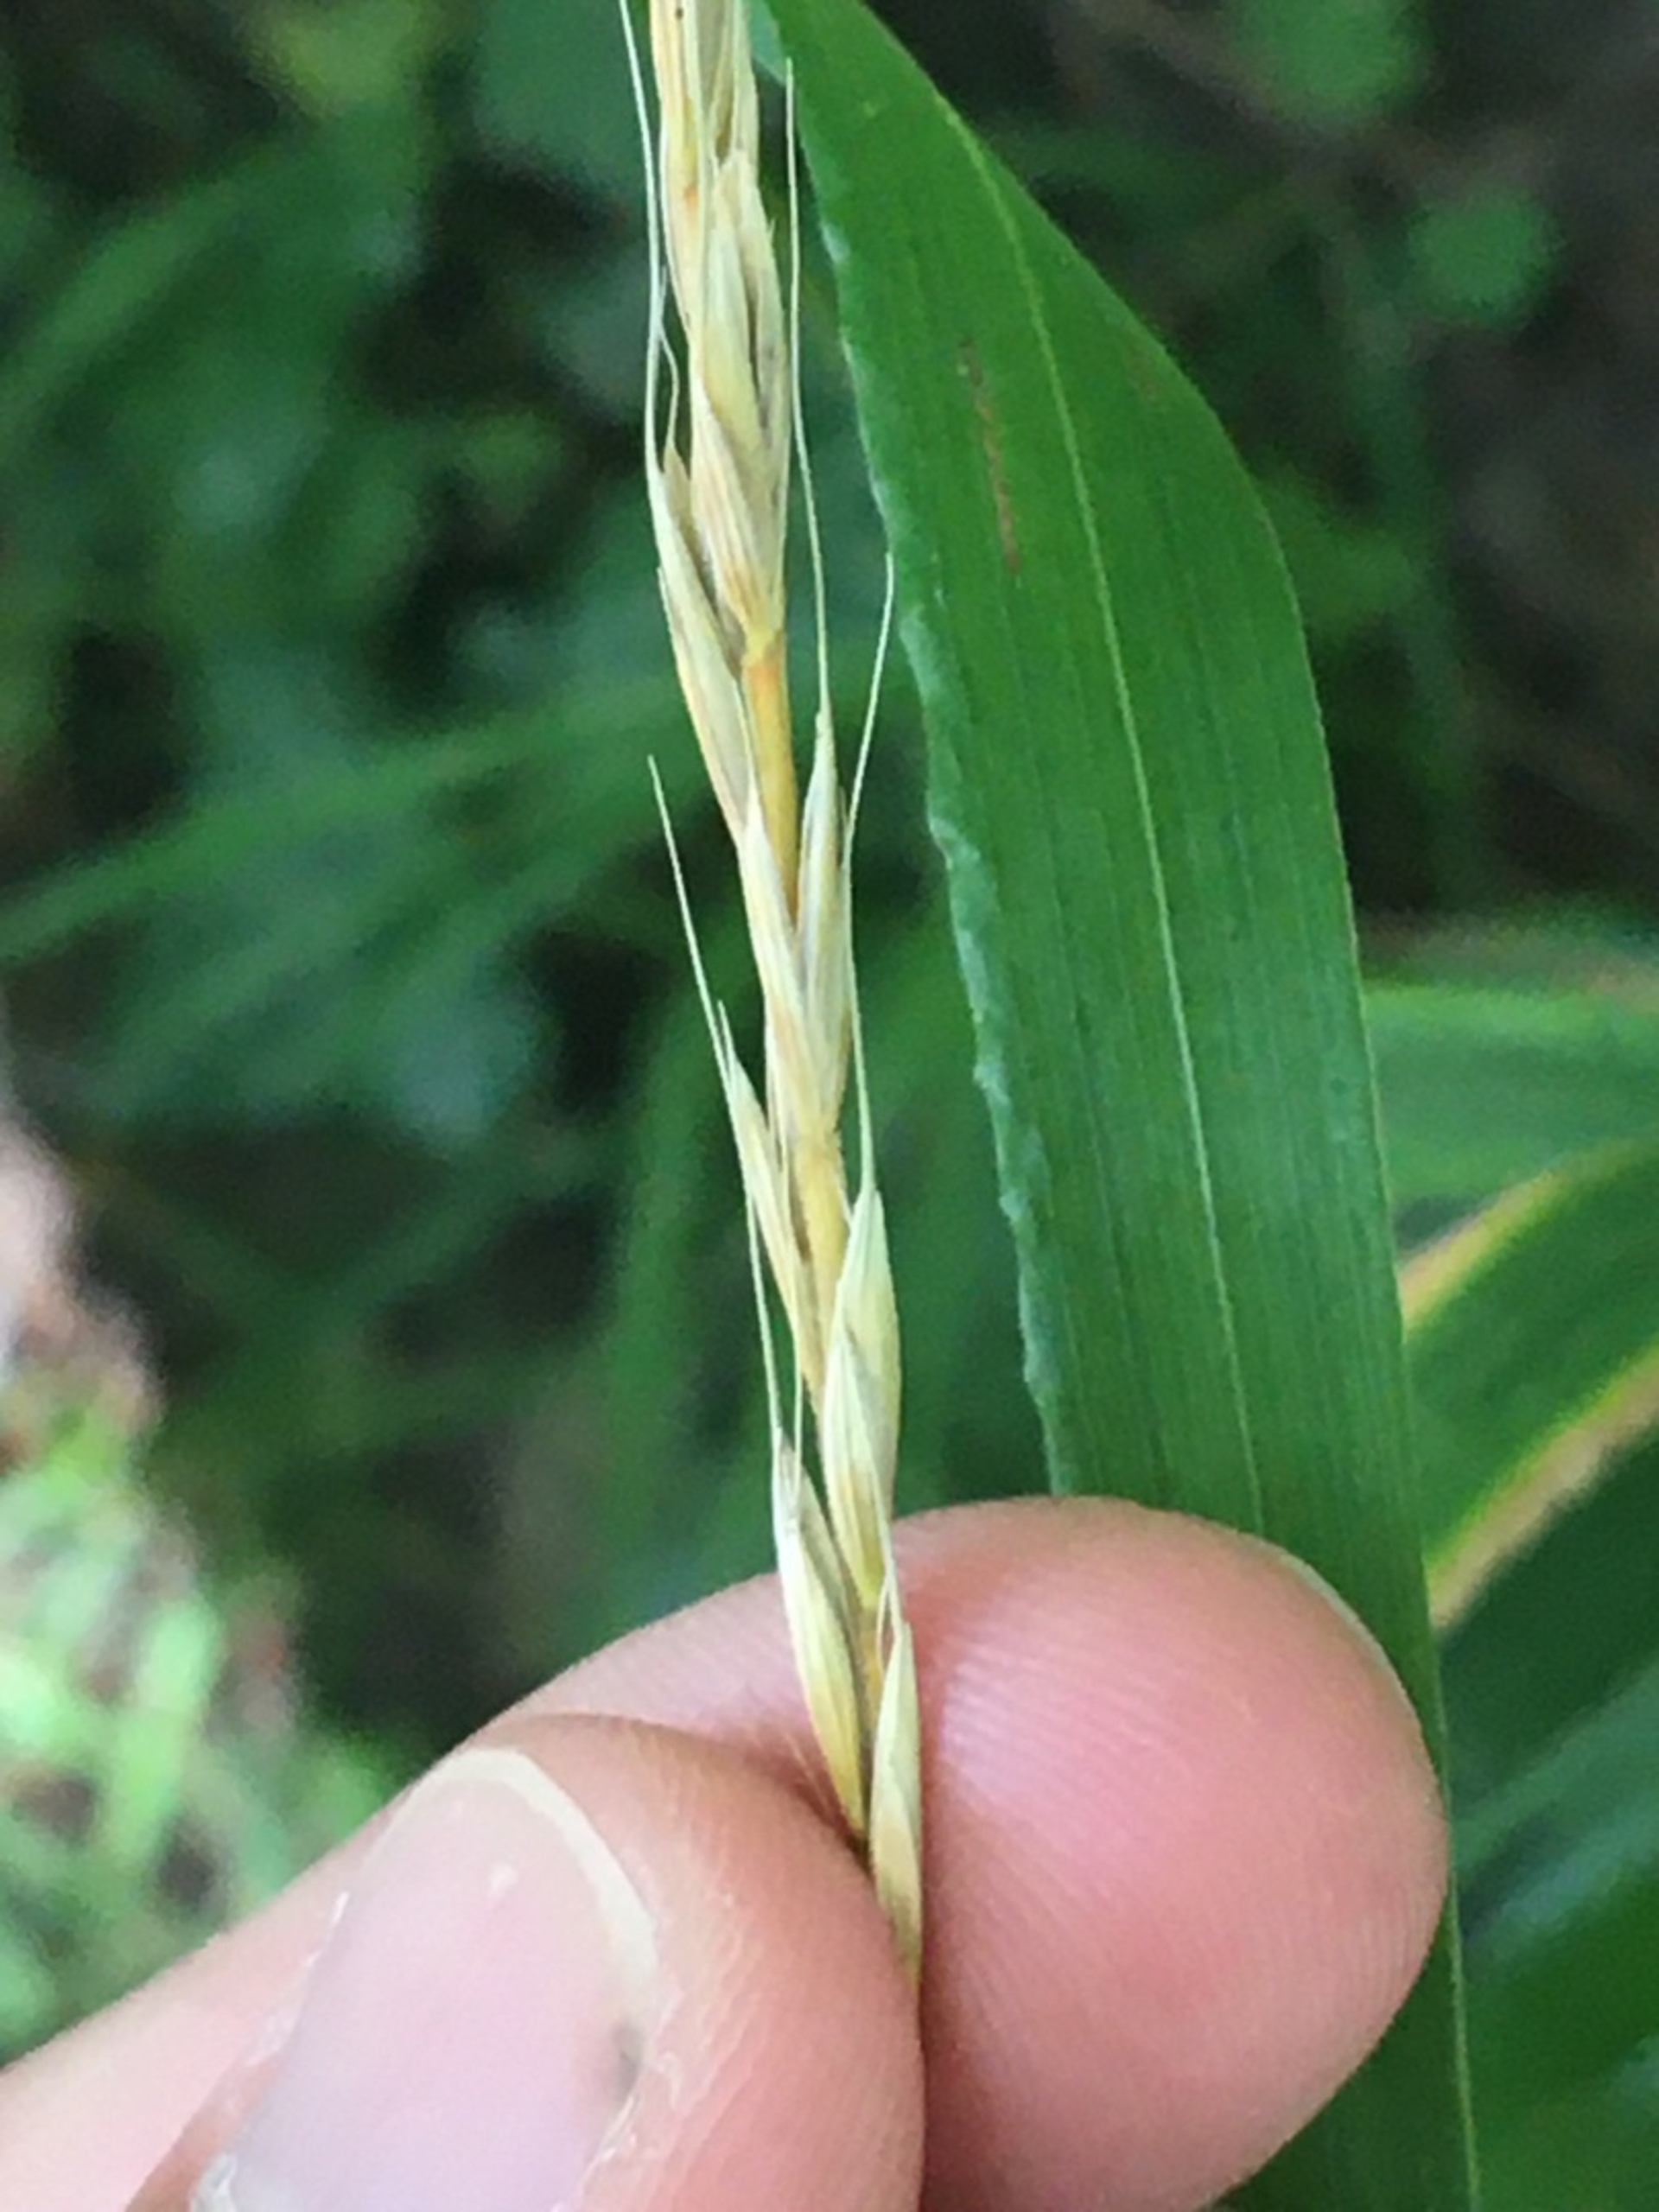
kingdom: Plantae
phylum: Tracheophyta
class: Liliopsida
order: Poales
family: Poaceae
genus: Elymus
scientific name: Elymus caninus
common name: Hundekvik
